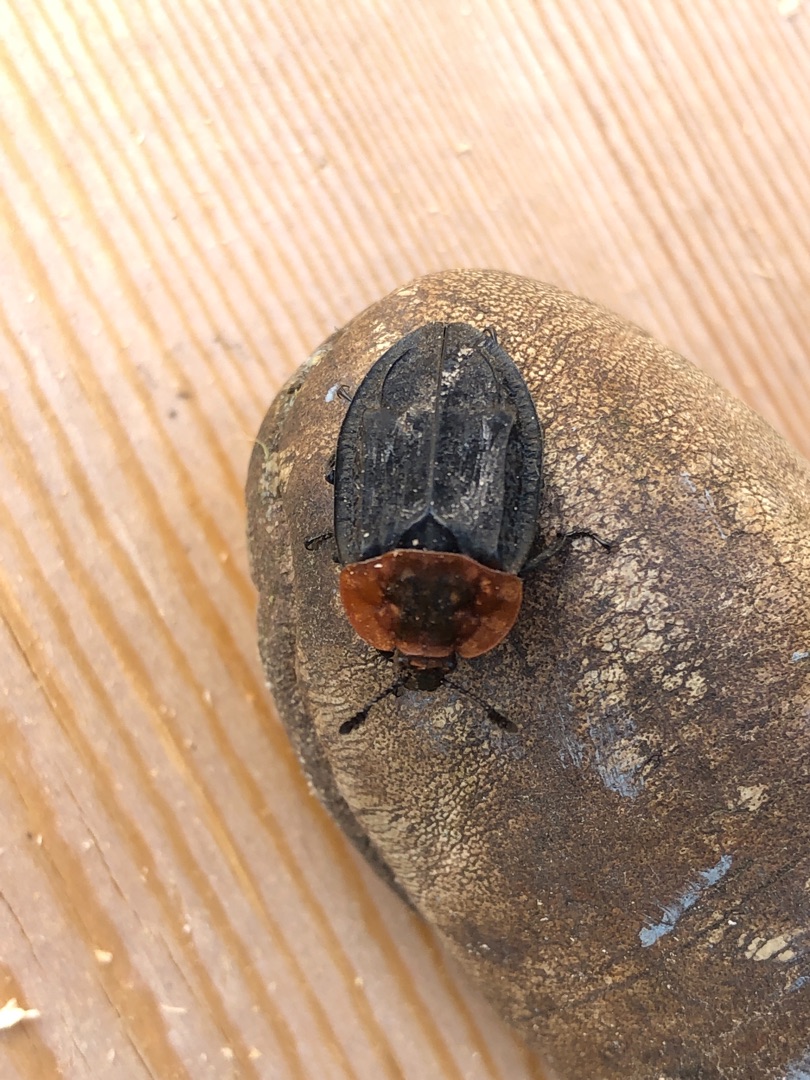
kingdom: Animalia
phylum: Arthropoda
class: Insecta
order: Coleoptera
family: Staphylinidae
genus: Oiceoptoma
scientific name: Oiceoptoma thoracicum
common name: Rødbrystet ådselbille
